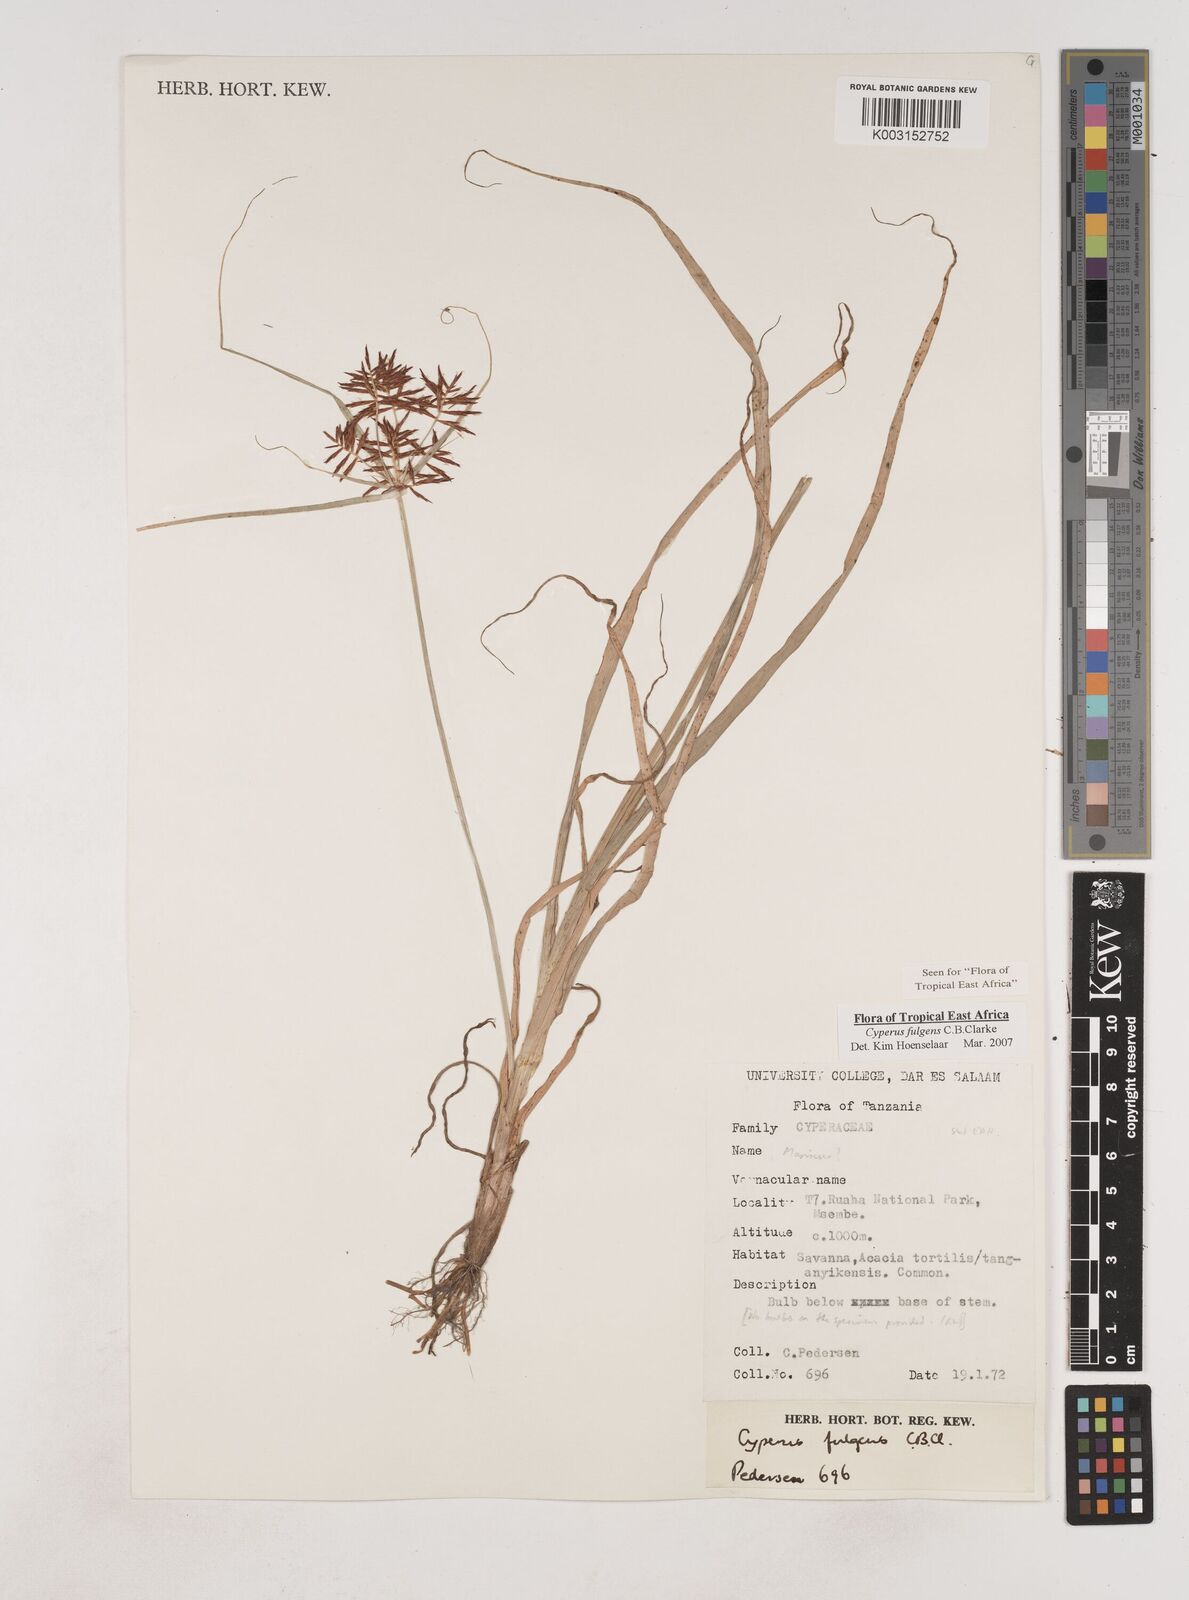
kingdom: Plantae
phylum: Tracheophyta
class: Liliopsida
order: Poales
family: Cyperaceae
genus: Cyperus
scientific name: Cyperus callistus
